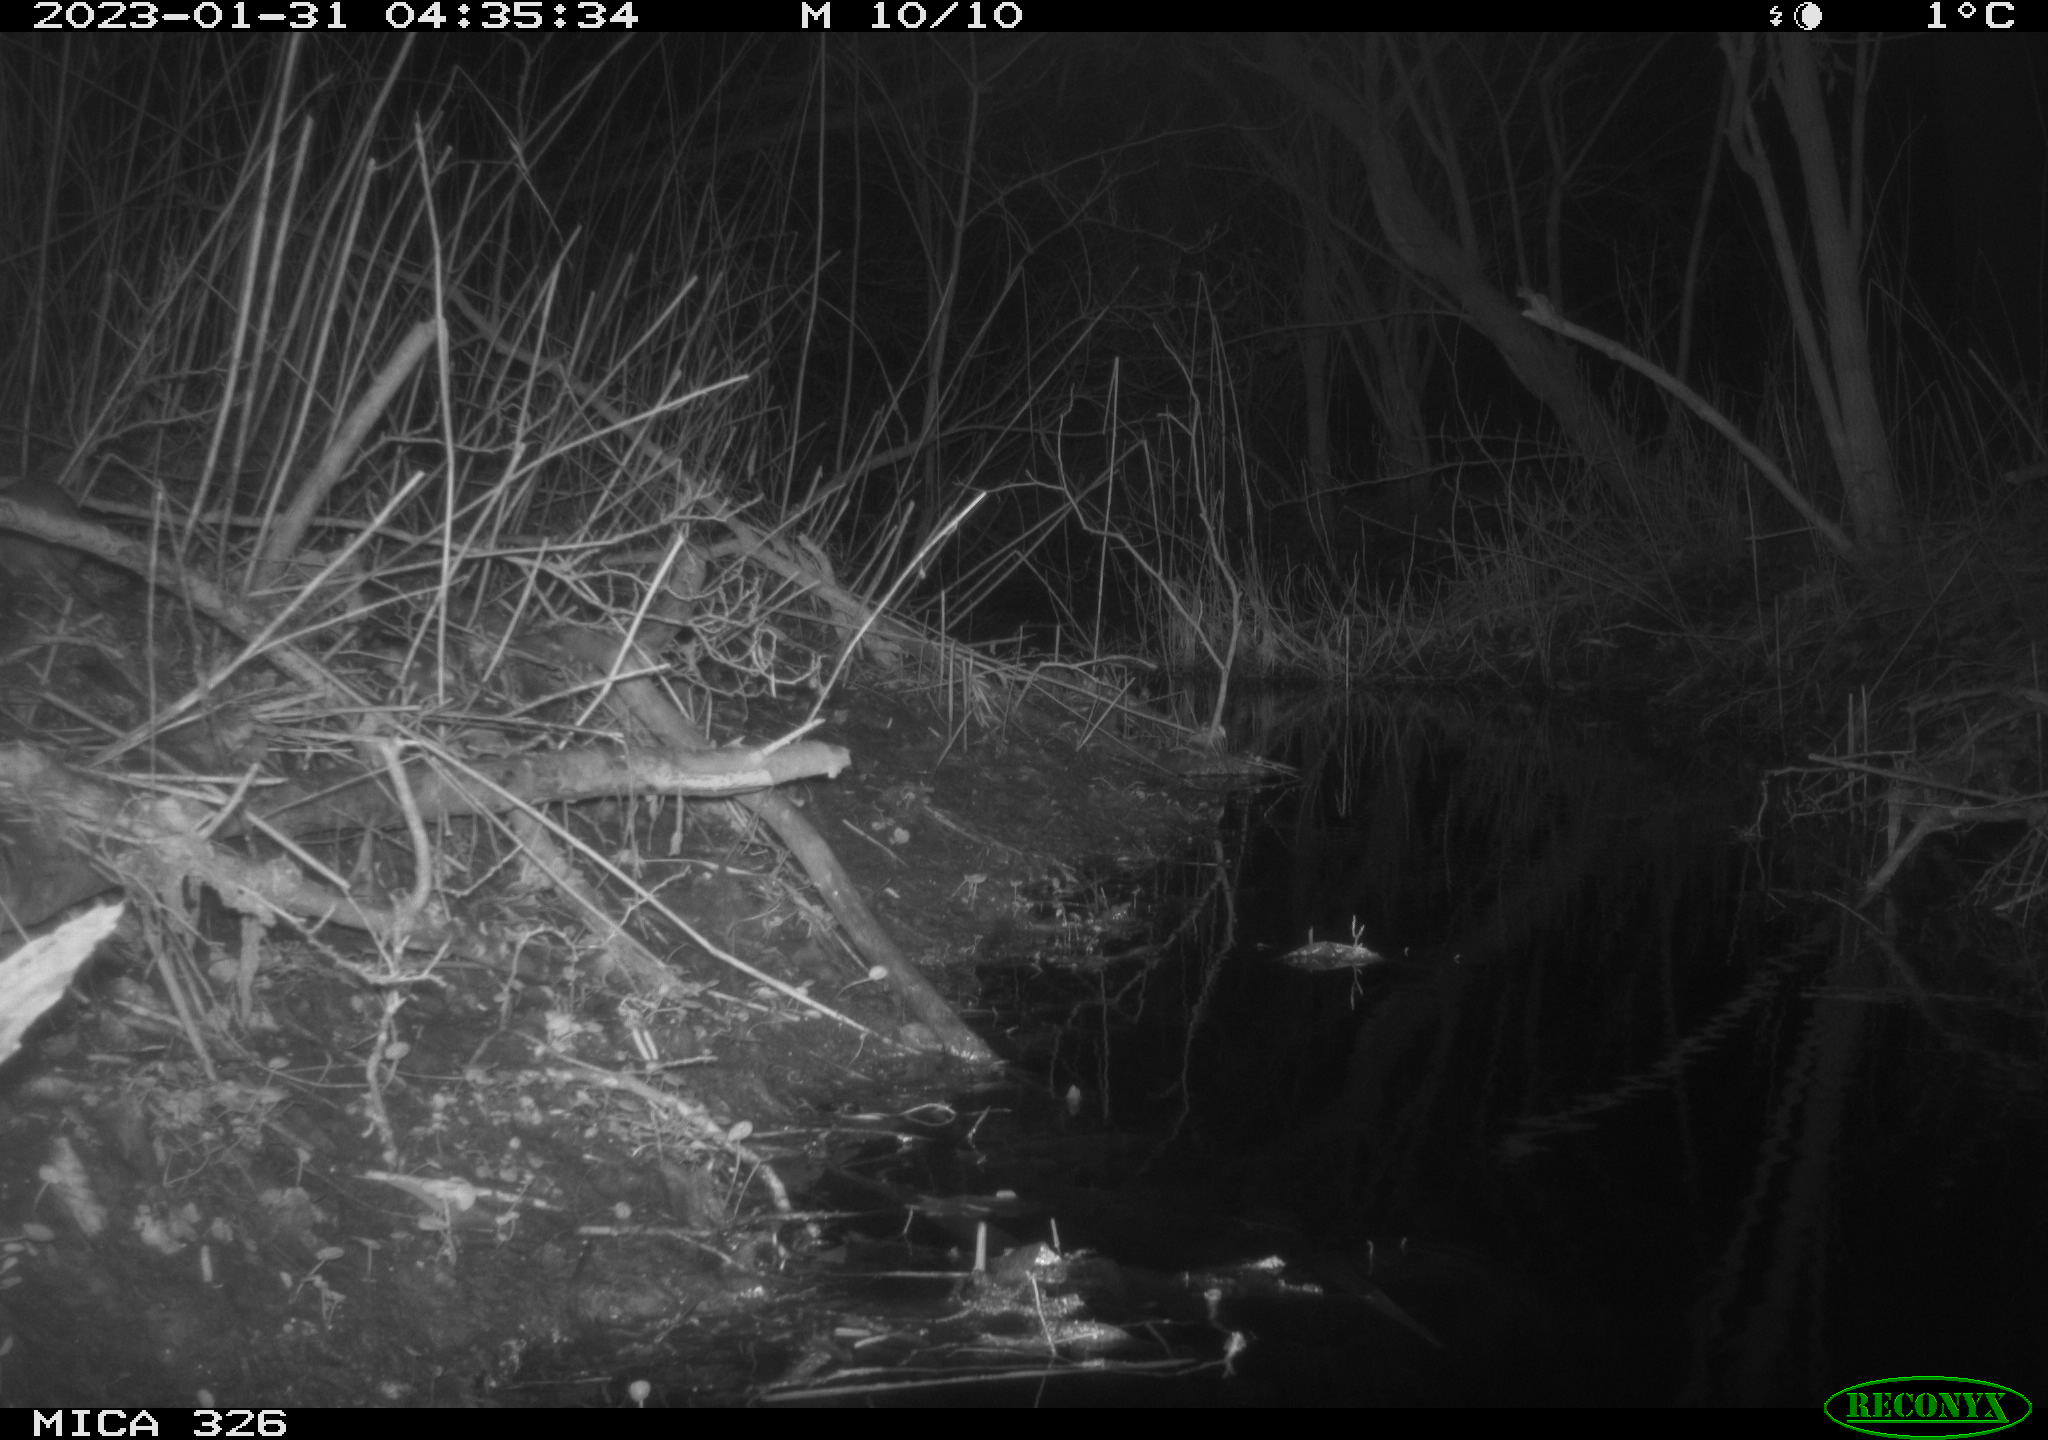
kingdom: Animalia
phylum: Chordata
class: Mammalia
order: Rodentia
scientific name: Rodentia
